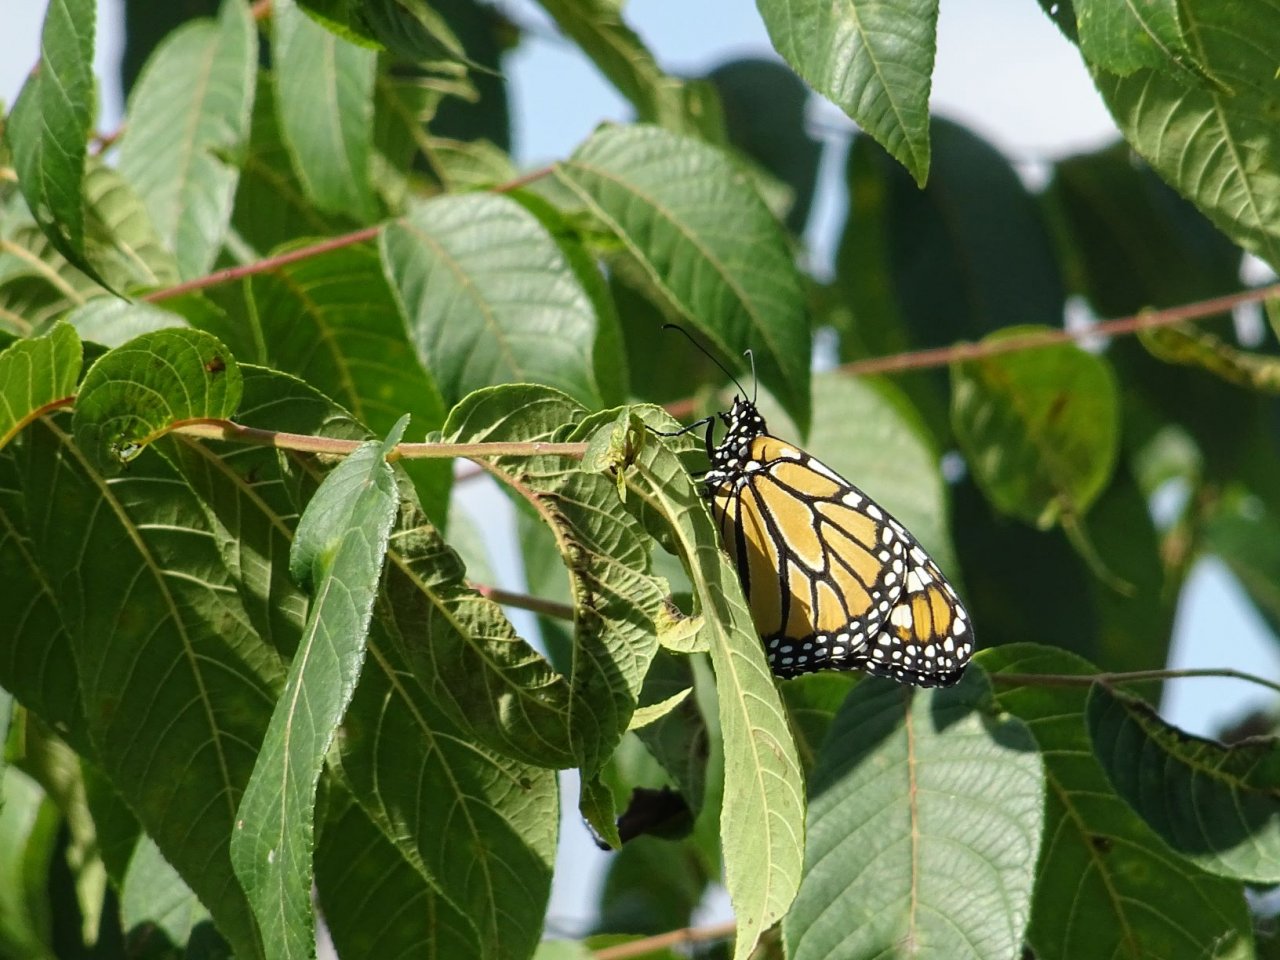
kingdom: Animalia
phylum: Arthropoda
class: Insecta
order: Lepidoptera
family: Nymphalidae
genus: Danaus
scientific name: Danaus plexippus
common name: Monarch
